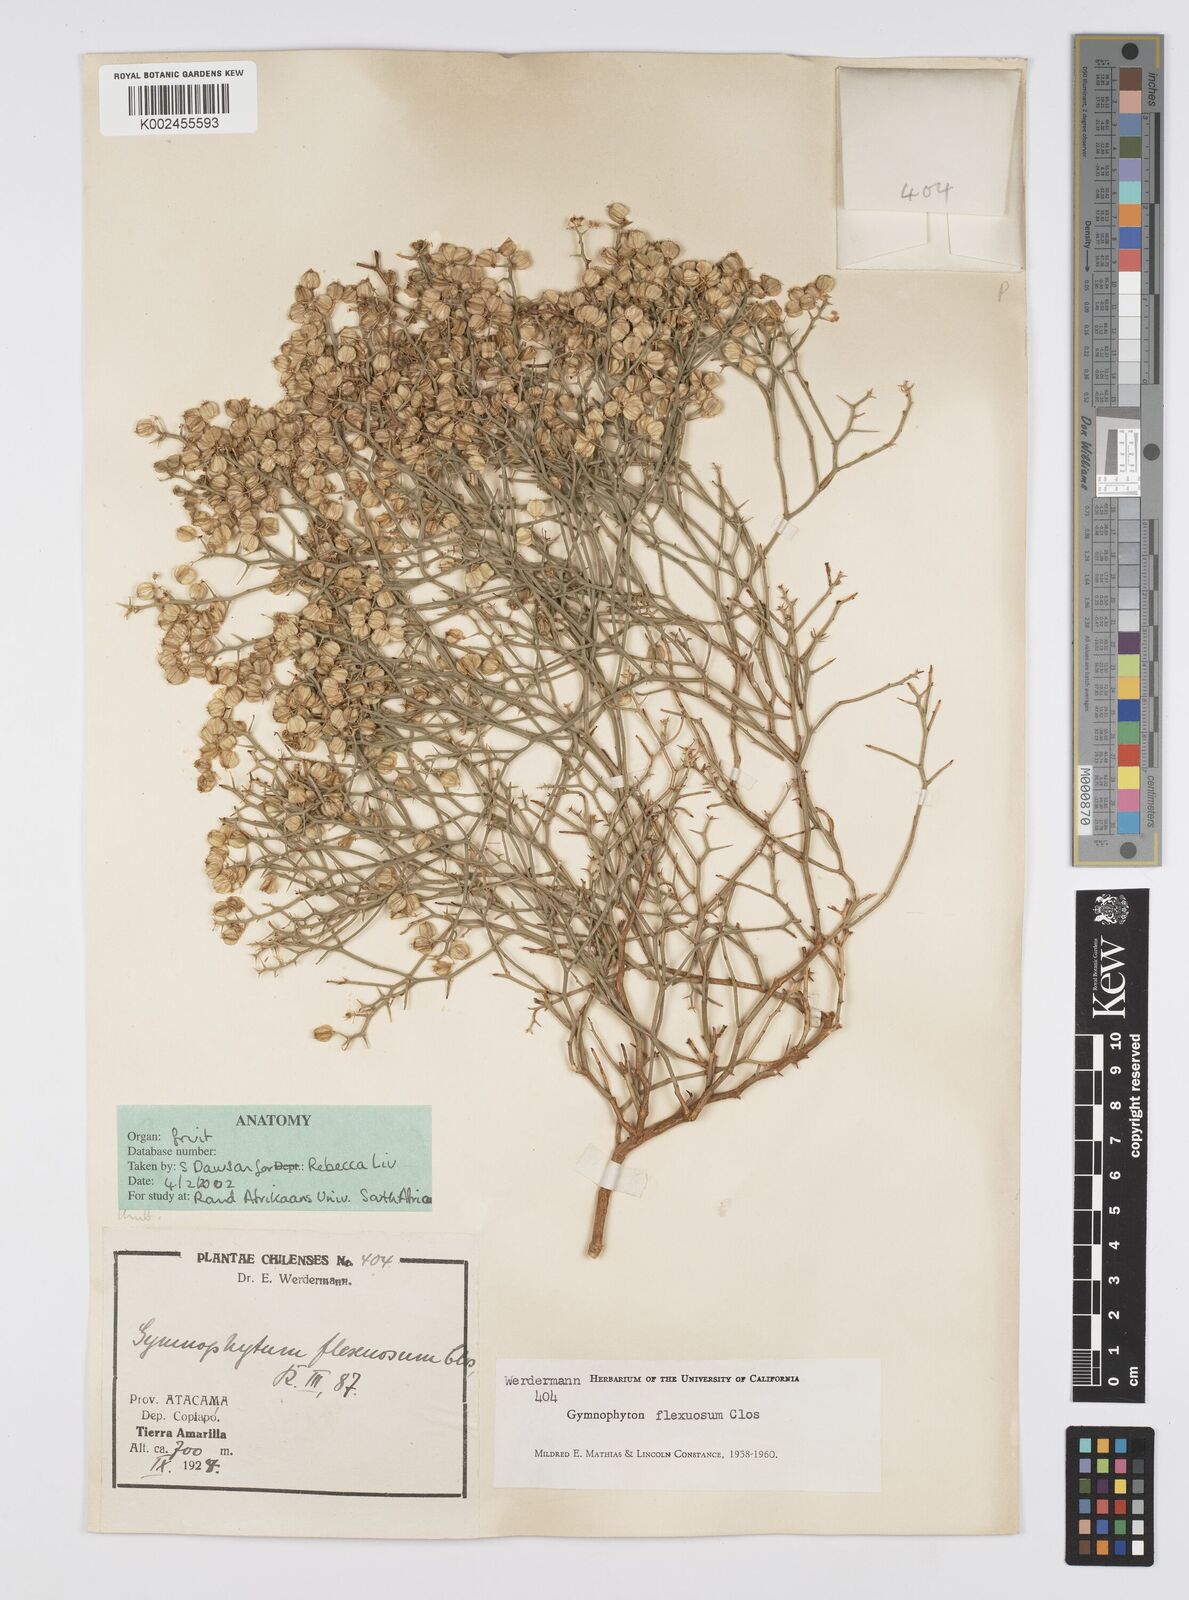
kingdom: Plantae
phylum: Tracheophyta
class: Magnoliopsida
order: Apiales
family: Apiaceae
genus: Gymnophyton
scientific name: Gymnophyton flexuosum
